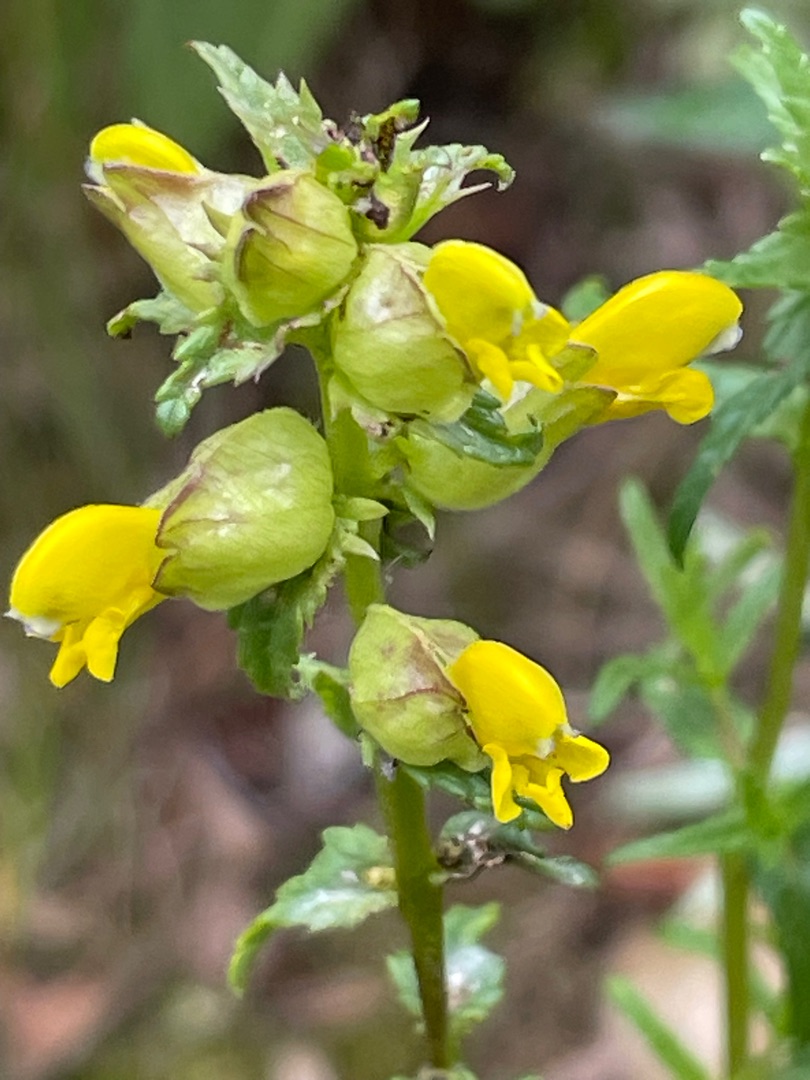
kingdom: Plantae
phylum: Tracheophyta
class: Magnoliopsida
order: Lamiales
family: Orobanchaceae
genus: Rhinanthus
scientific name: Rhinanthus minor
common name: Liden skjaller
